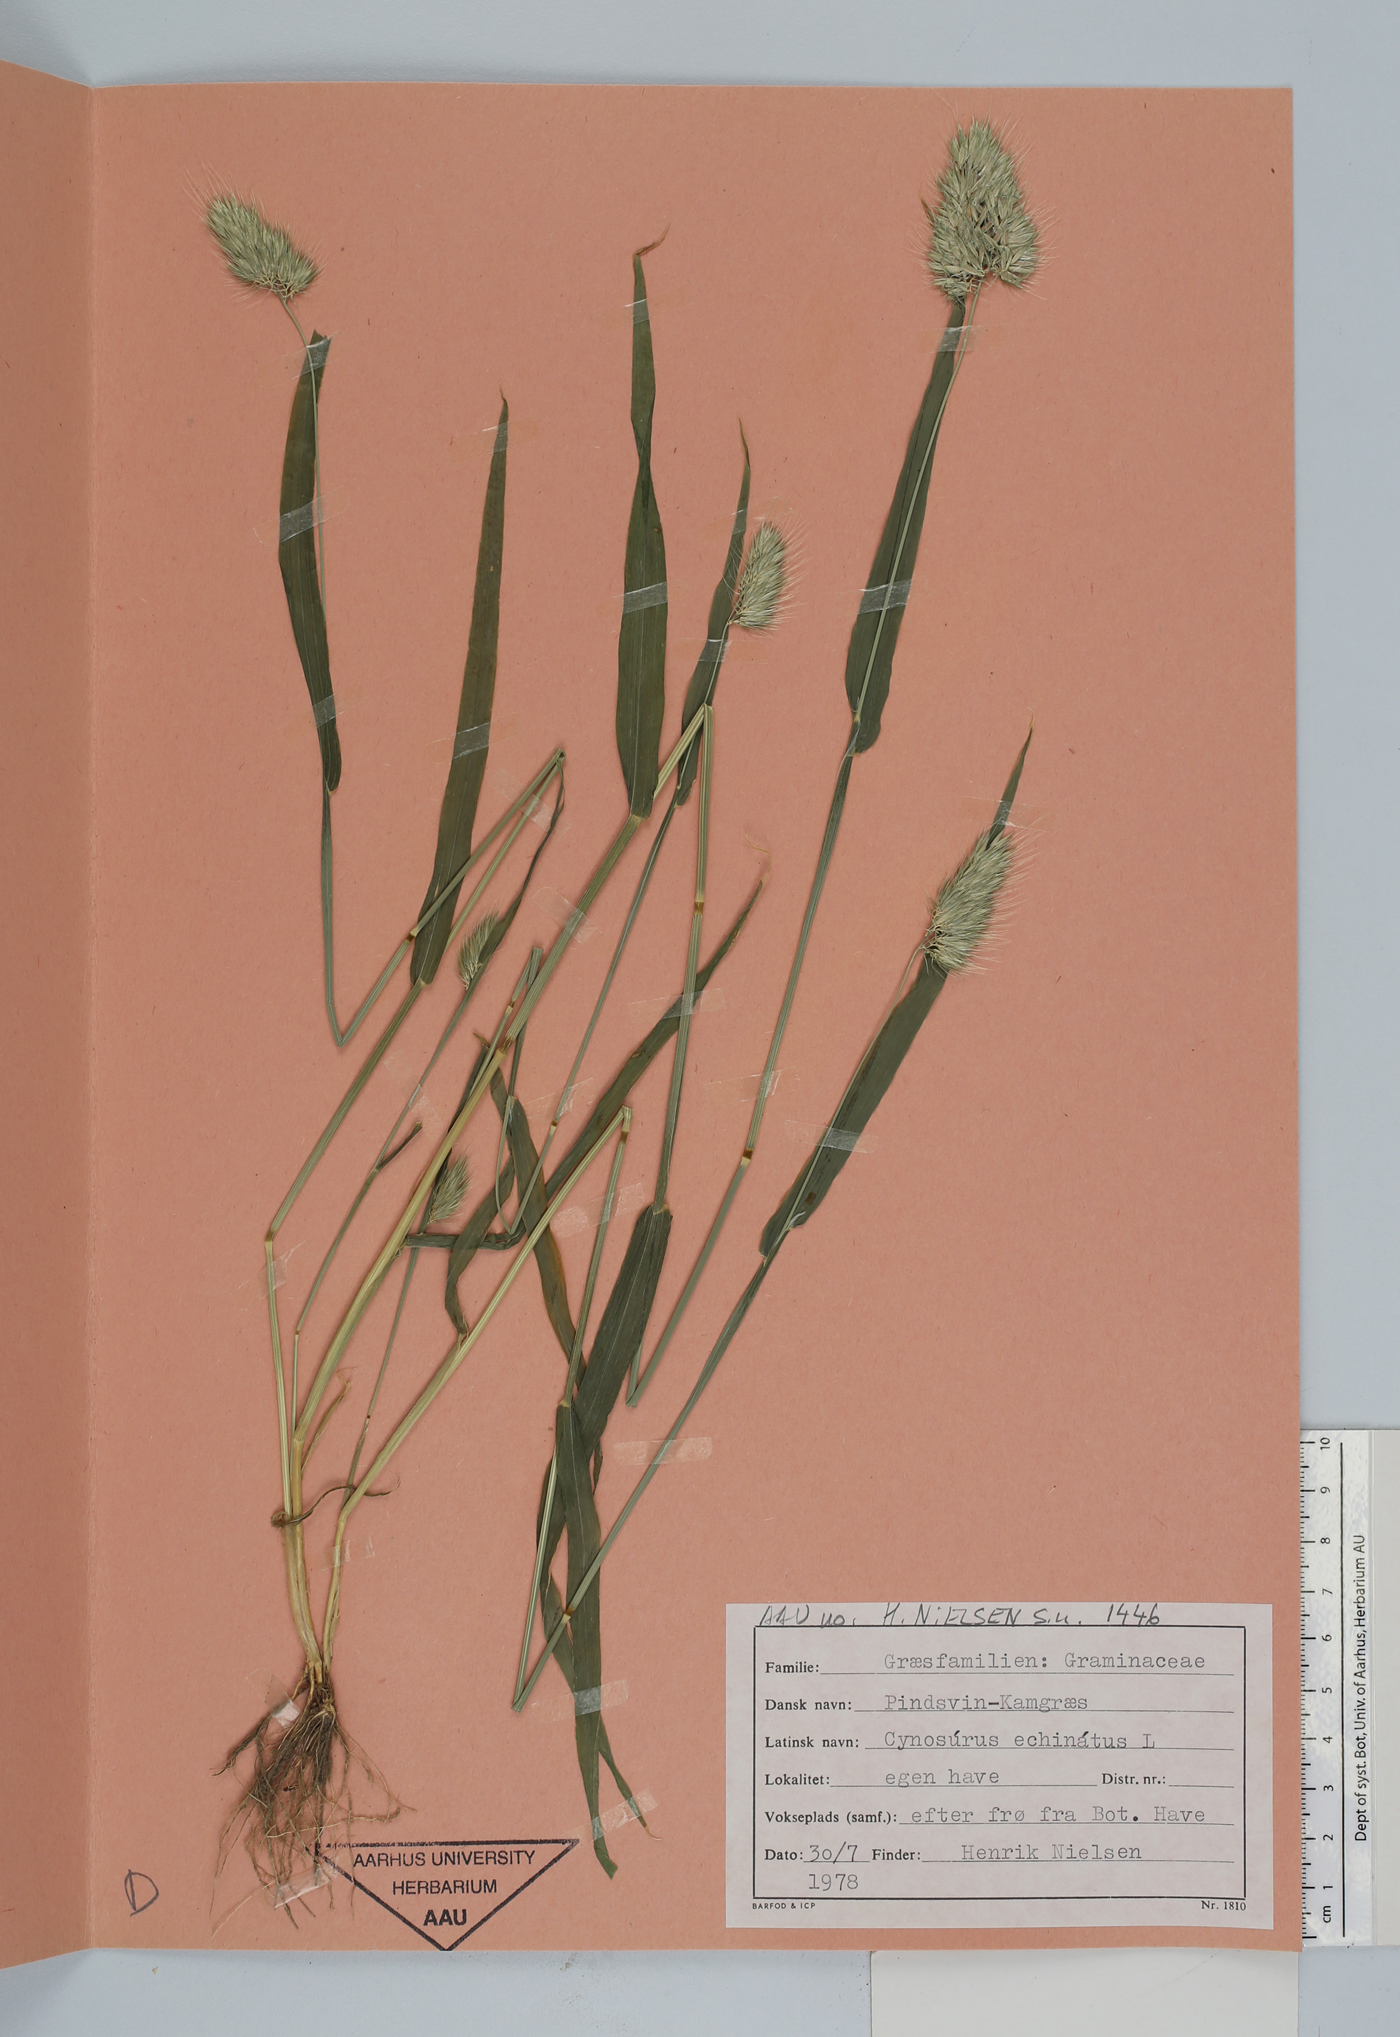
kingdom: Plantae
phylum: Tracheophyta
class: Liliopsida
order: Poales
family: Poaceae
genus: Cynosurus
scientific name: Cynosurus echinatus
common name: Rough dog's-tail
